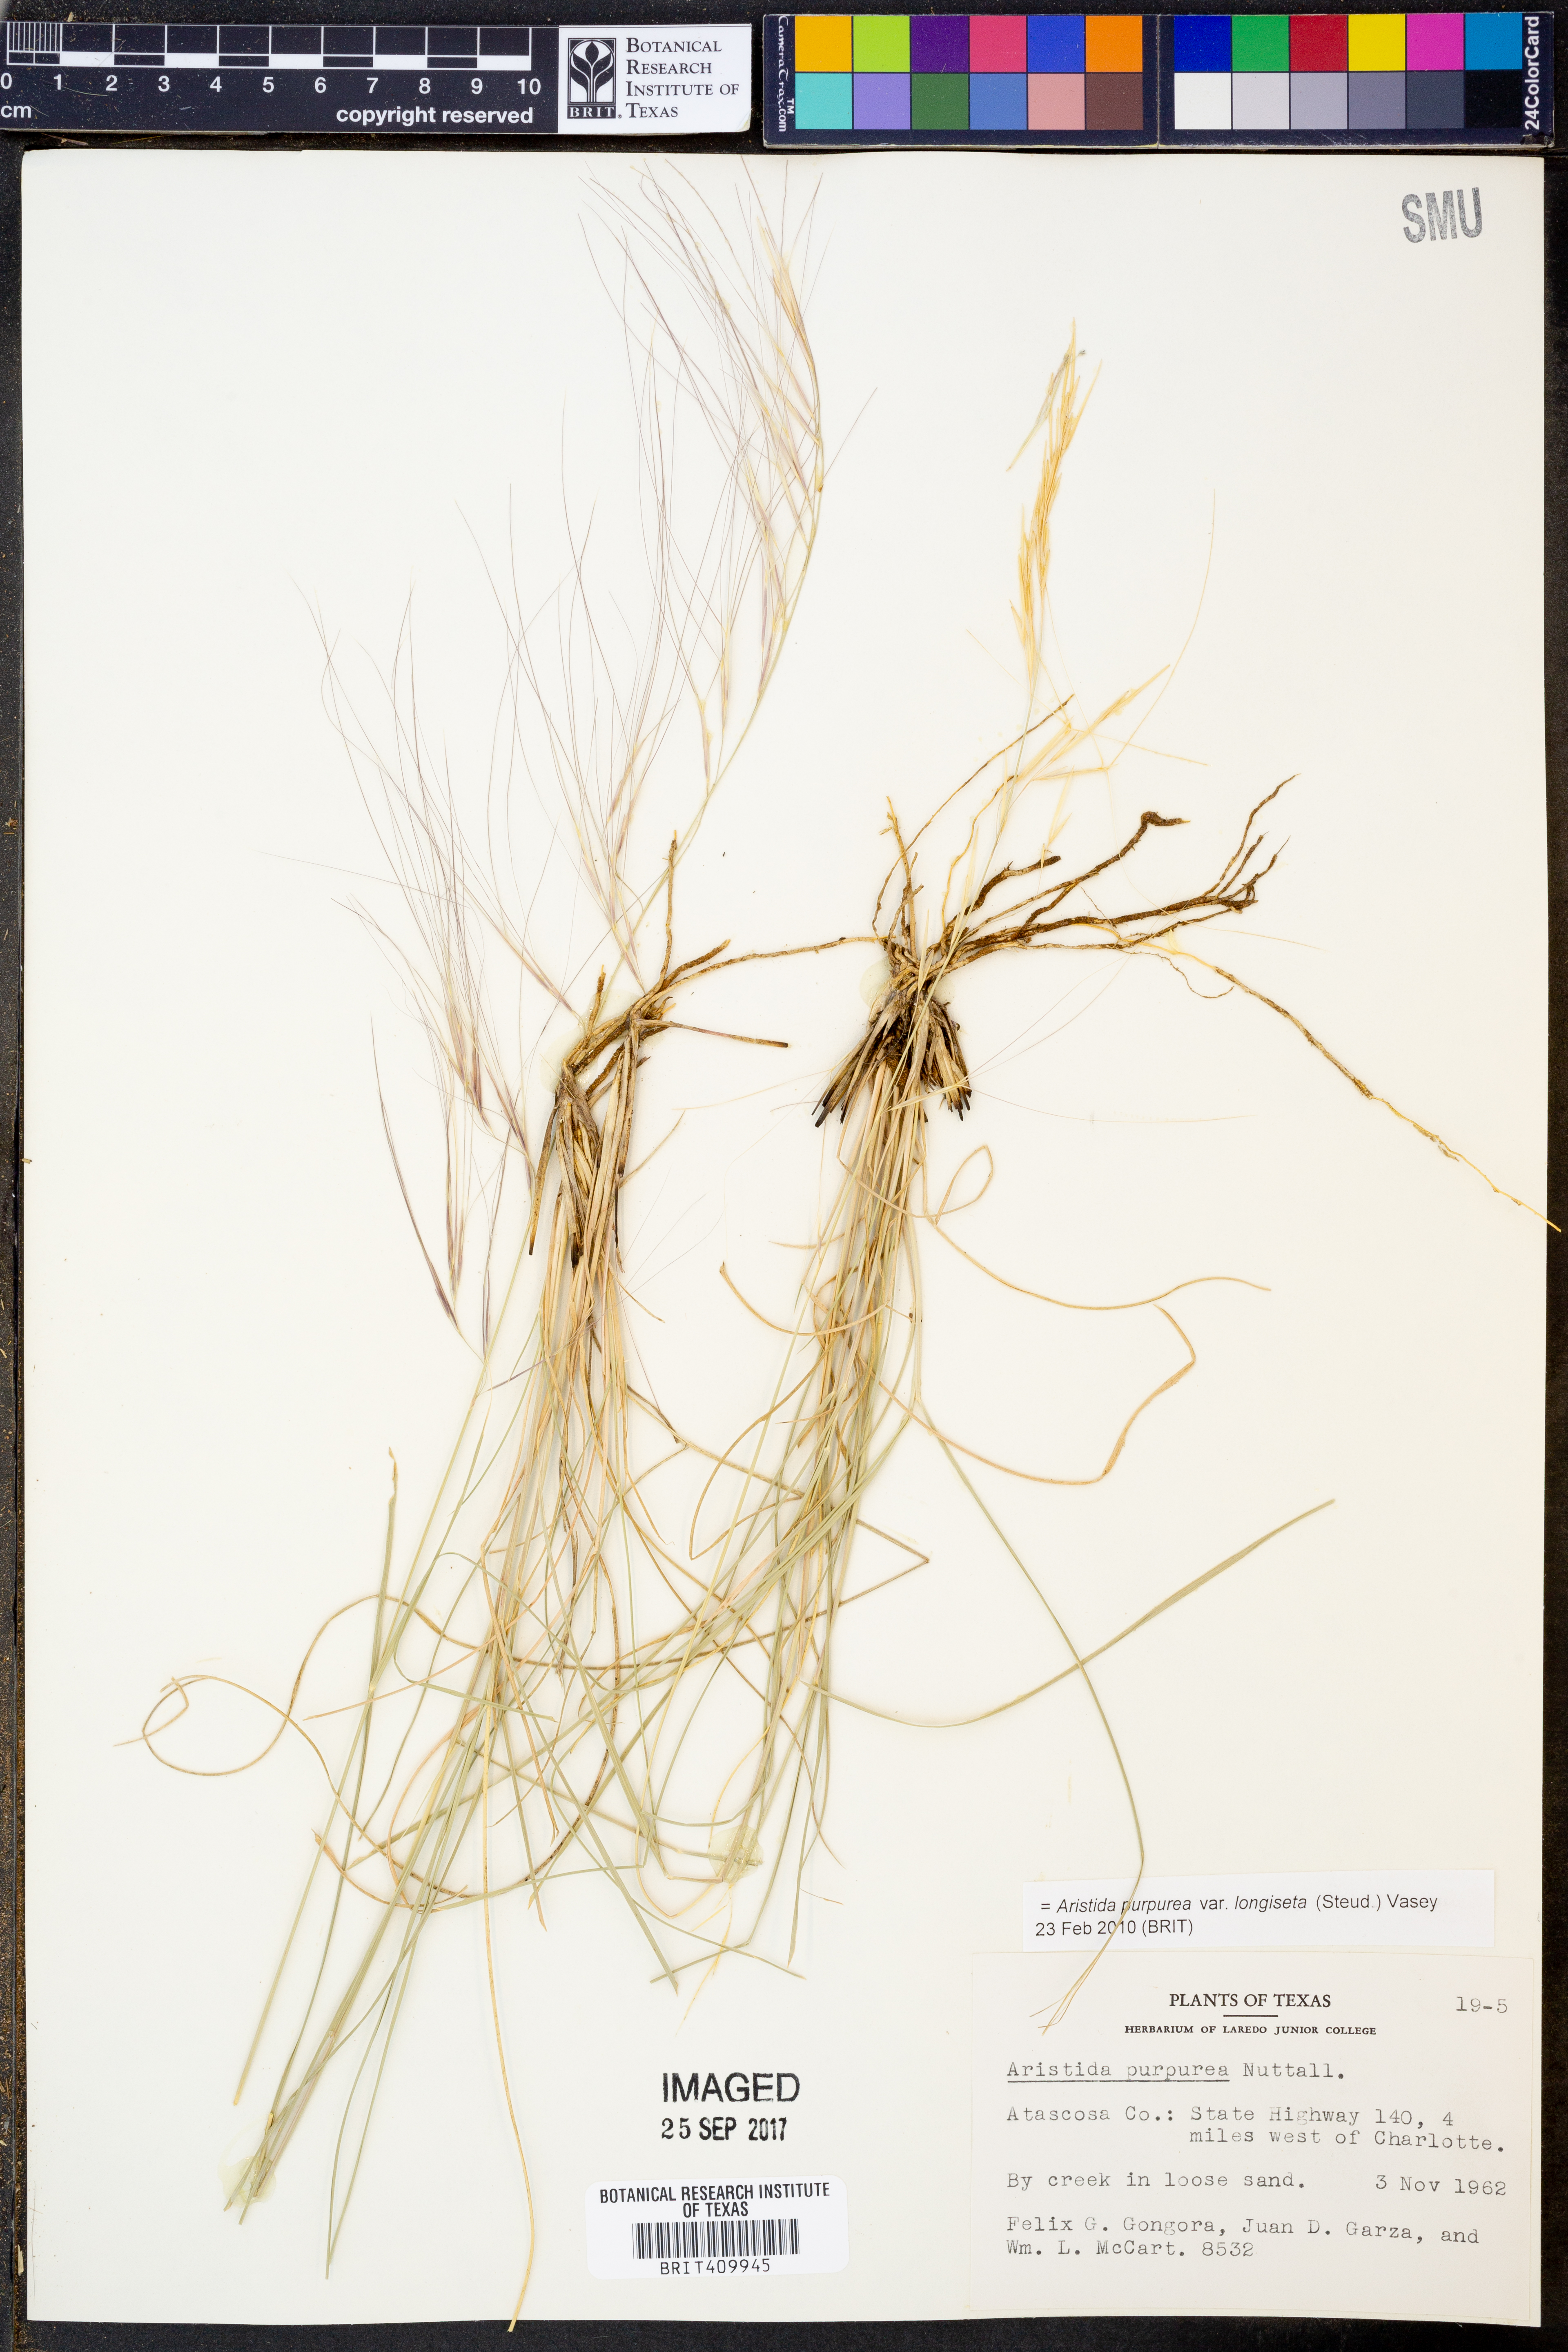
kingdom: Plantae
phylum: Tracheophyta
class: Liliopsida
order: Poales
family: Poaceae
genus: Aristida
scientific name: Aristida longiseta
